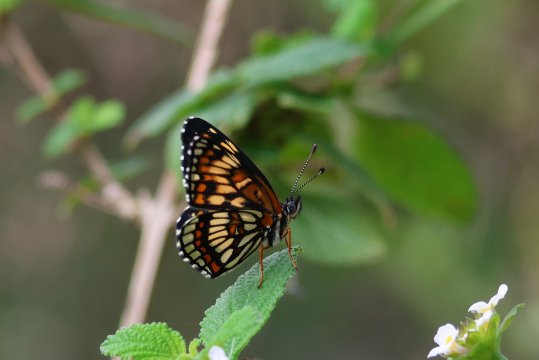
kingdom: Animalia
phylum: Arthropoda
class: Insecta
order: Lepidoptera
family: Nymphalidae
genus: Thessalia
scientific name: Thessalia theona
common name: Theona Checkerspot
